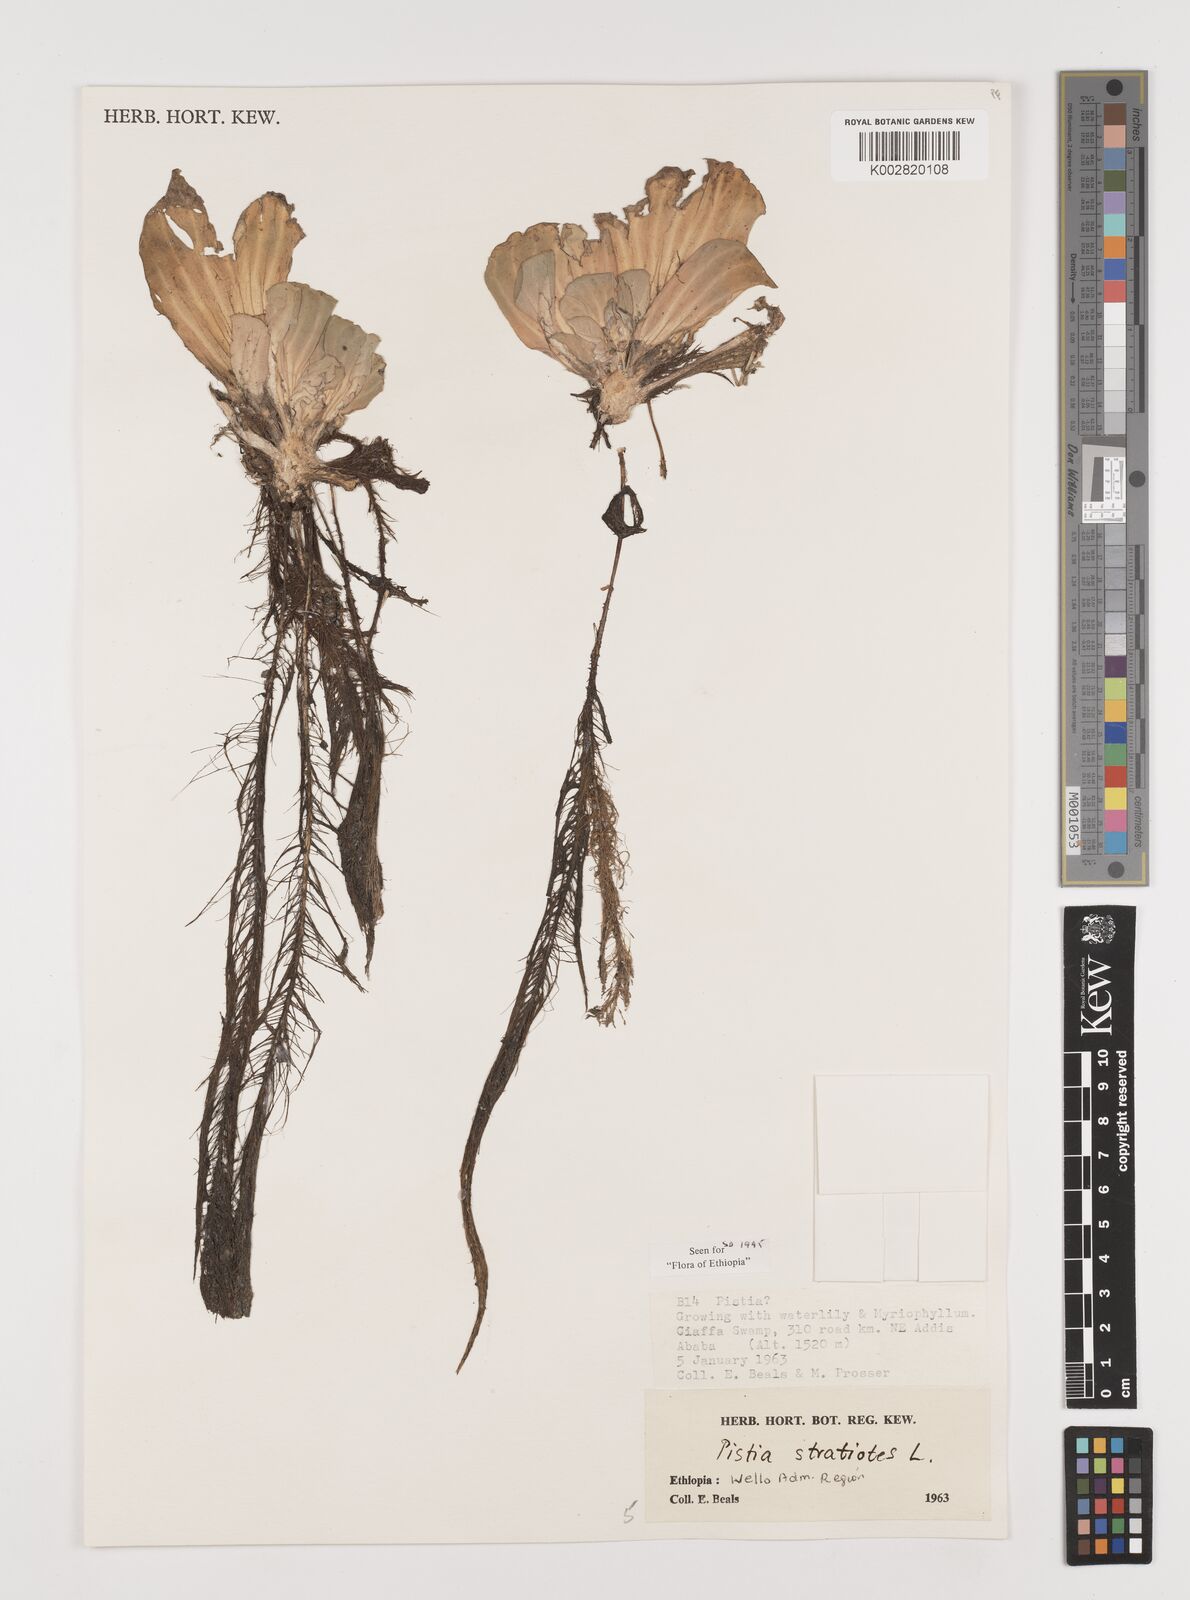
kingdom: Plantae
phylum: Tracheophyta
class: Liliopsida
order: Alismatales
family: Araceae
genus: Pistia
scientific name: Pistia stratiotes
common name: Water lettuce
